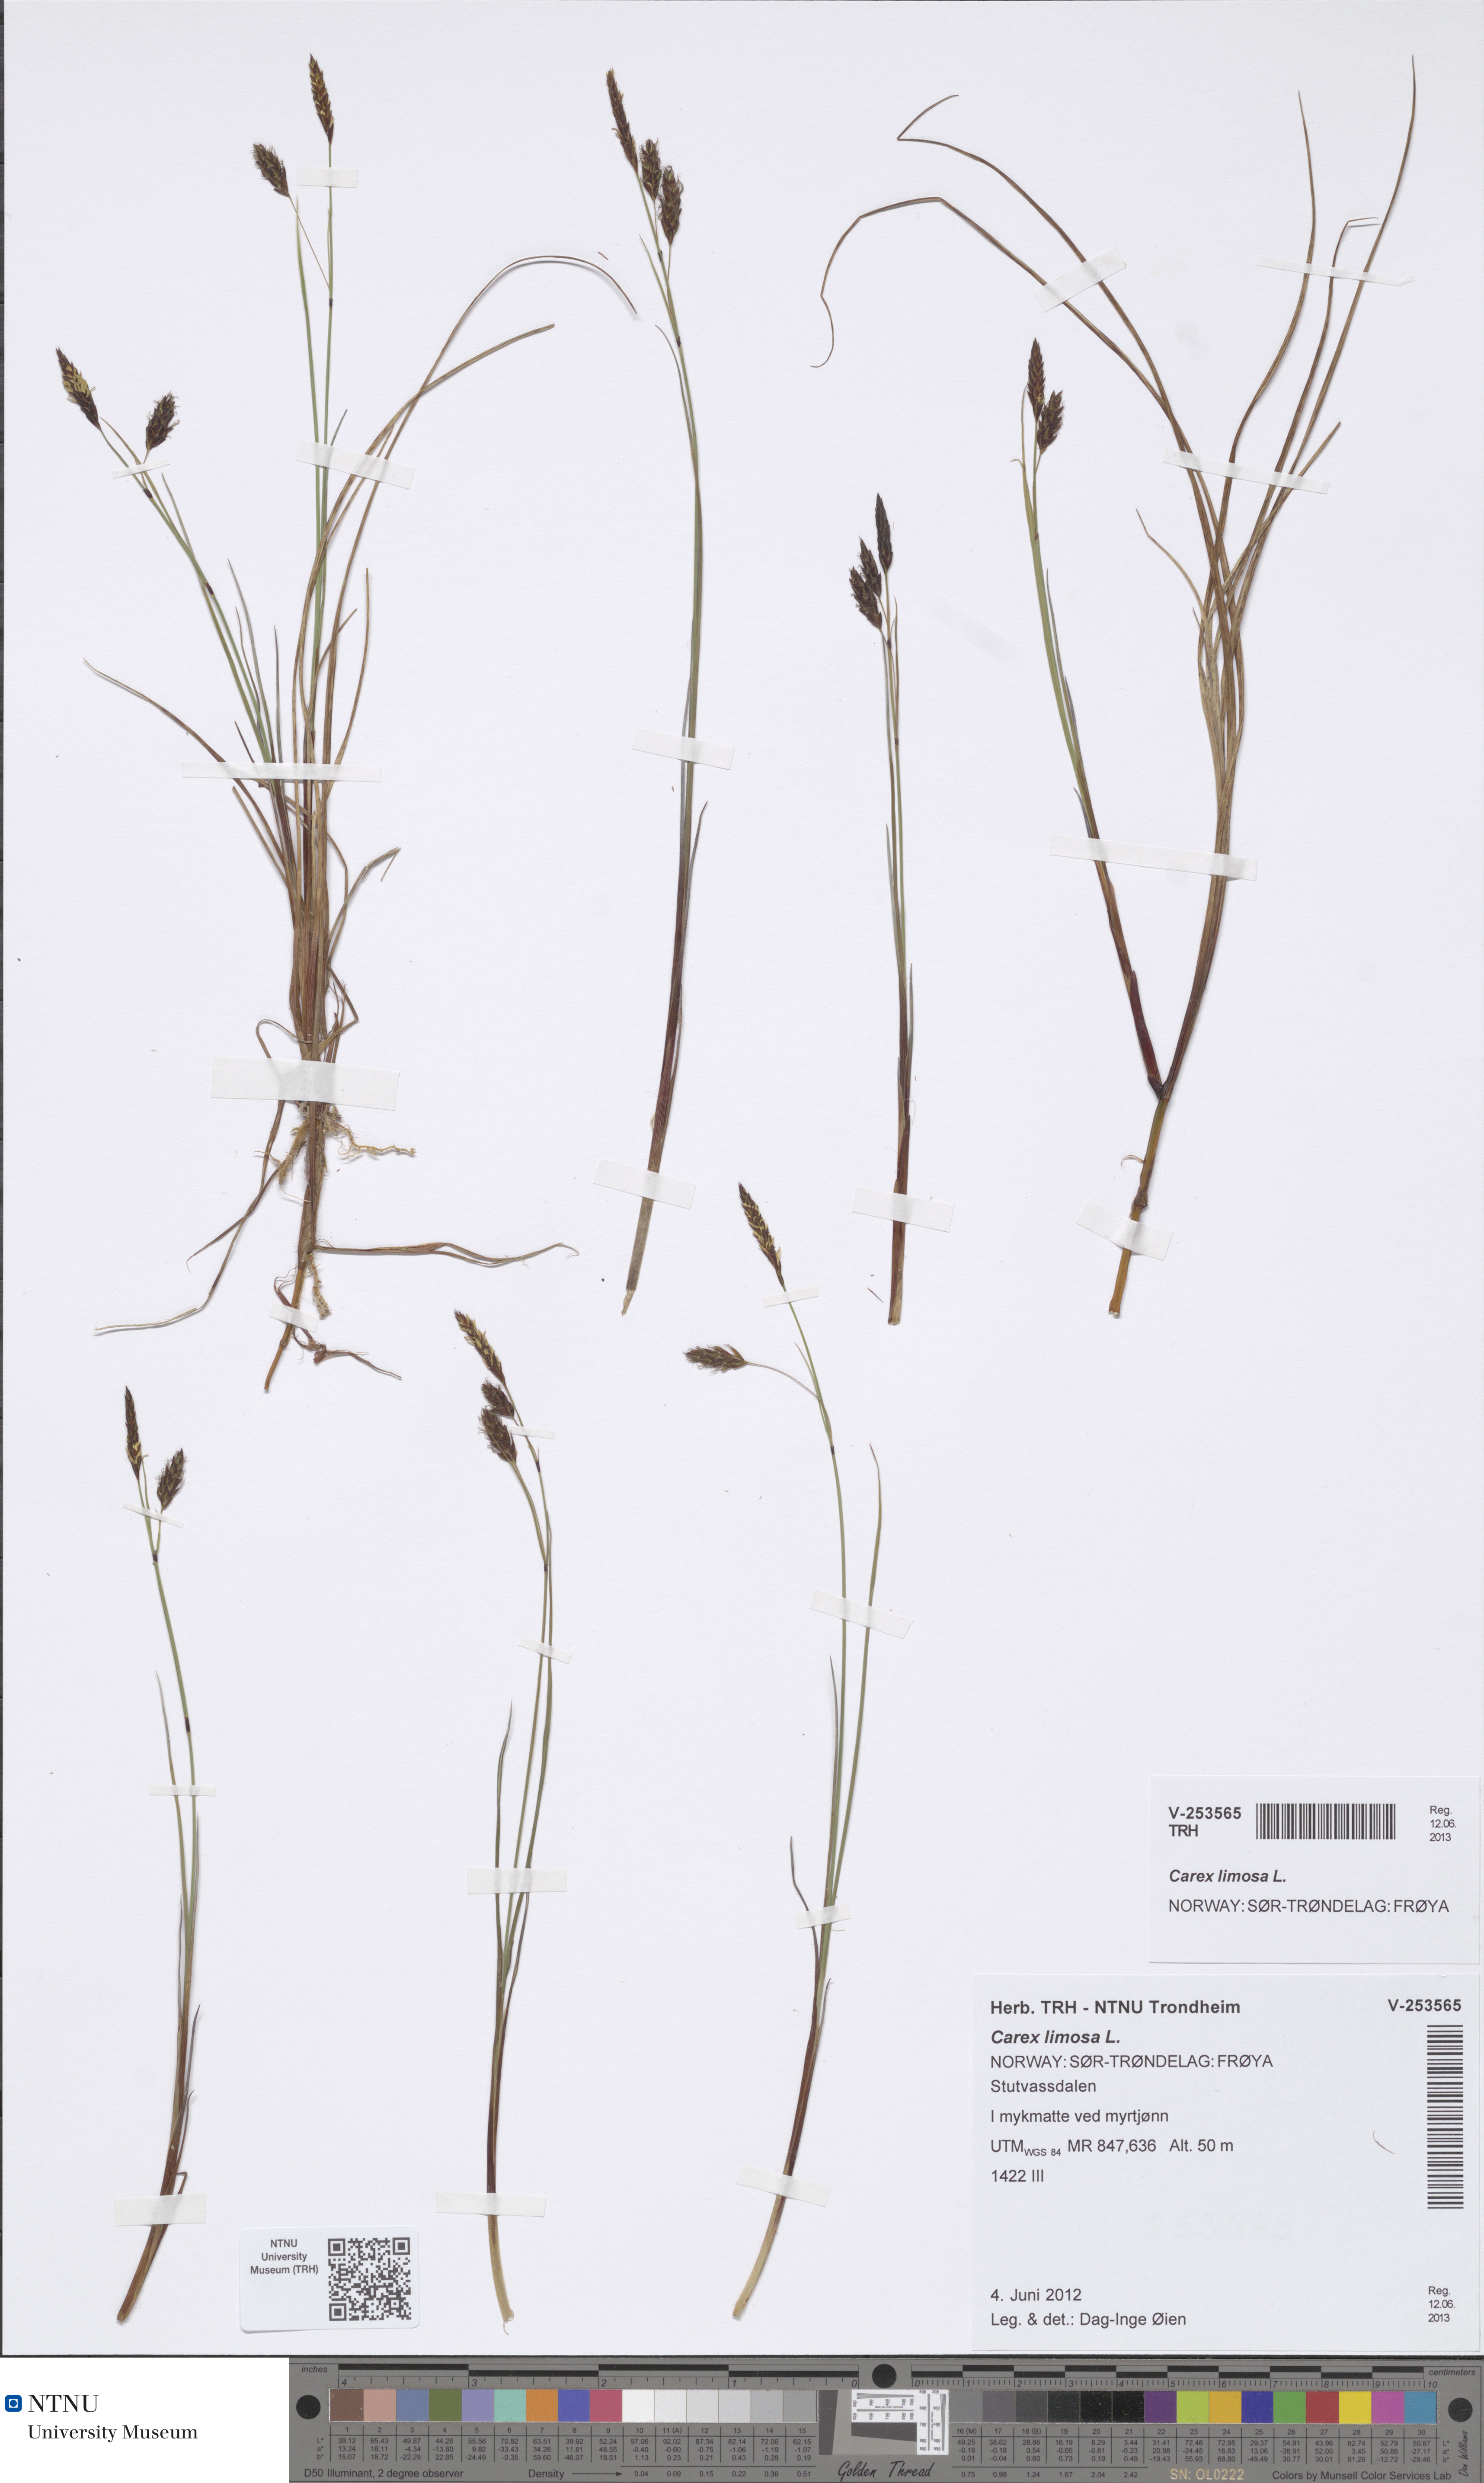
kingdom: Plantae
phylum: Tracheophyta
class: Liliopsida
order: Poales
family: Cyperaceae
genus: Carex
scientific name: Carex limosa
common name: Bog sedge
